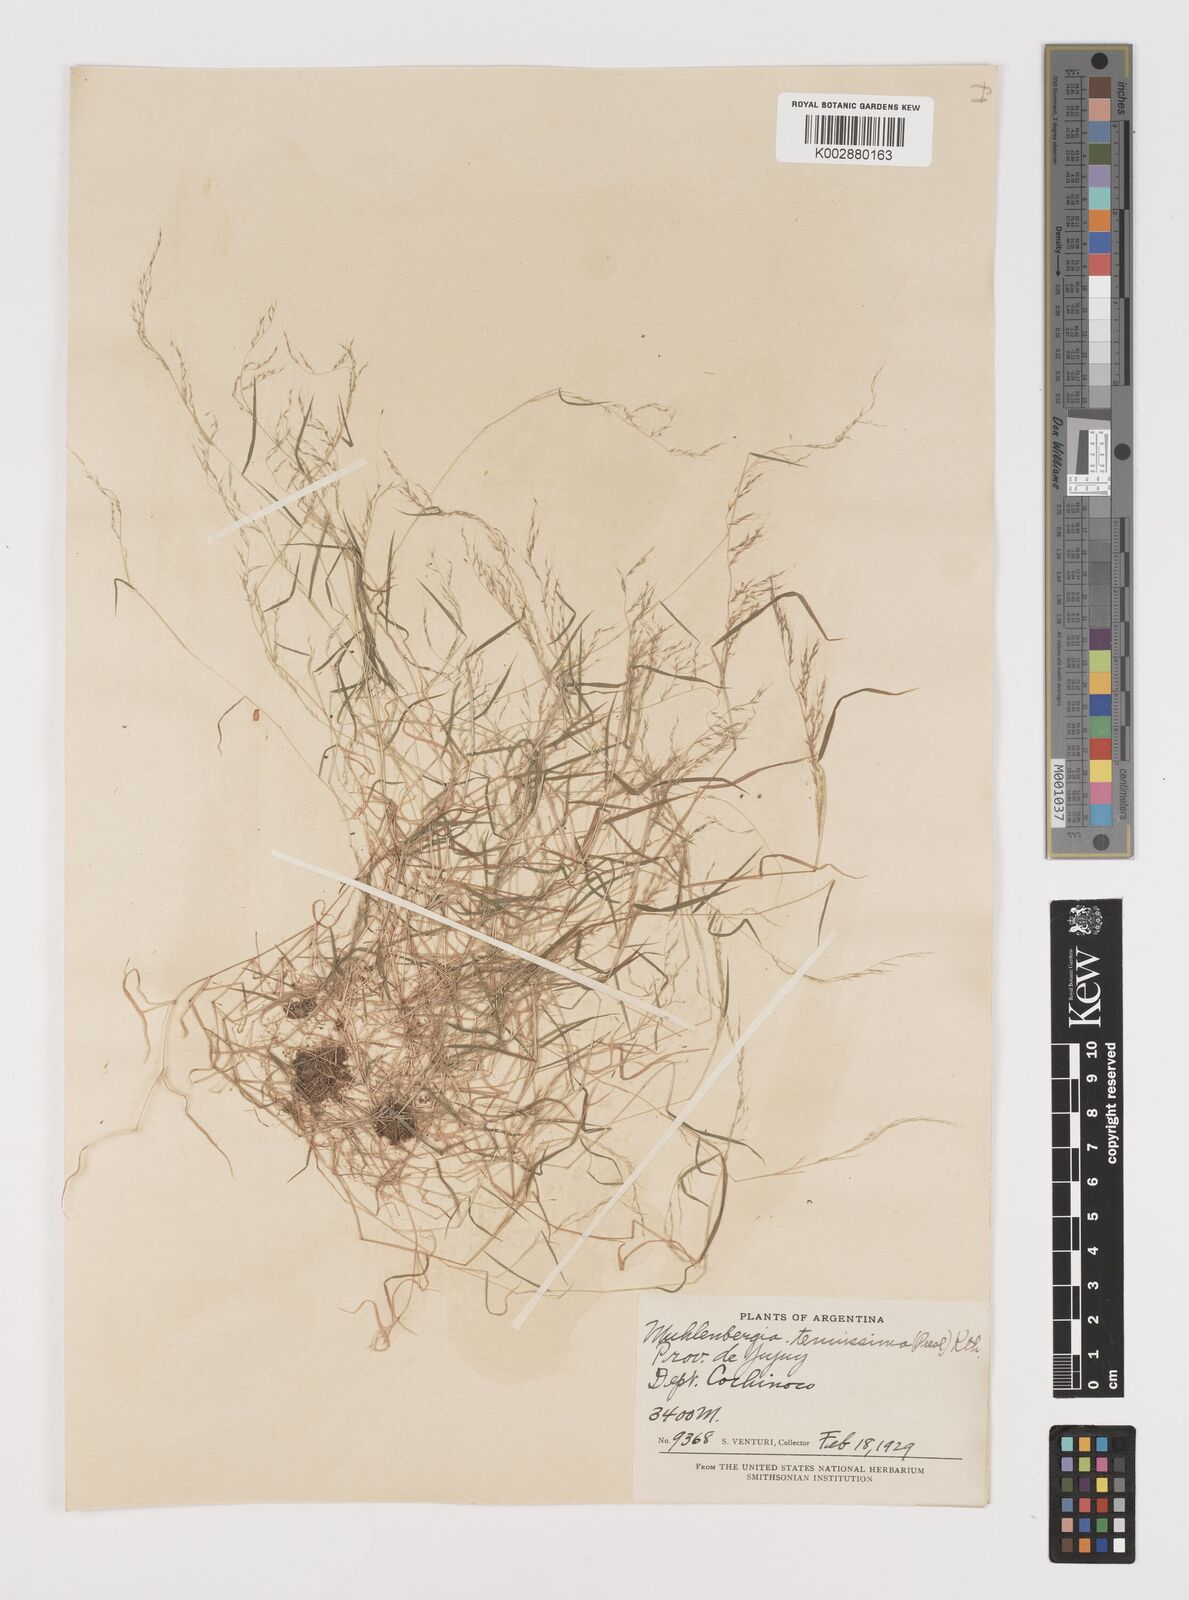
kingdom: Plantae
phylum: Tracheophyta
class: Liliopsida
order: Poales
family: Poaceae
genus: Muhlenbergia
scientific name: Muhlenbergia tenuissima
